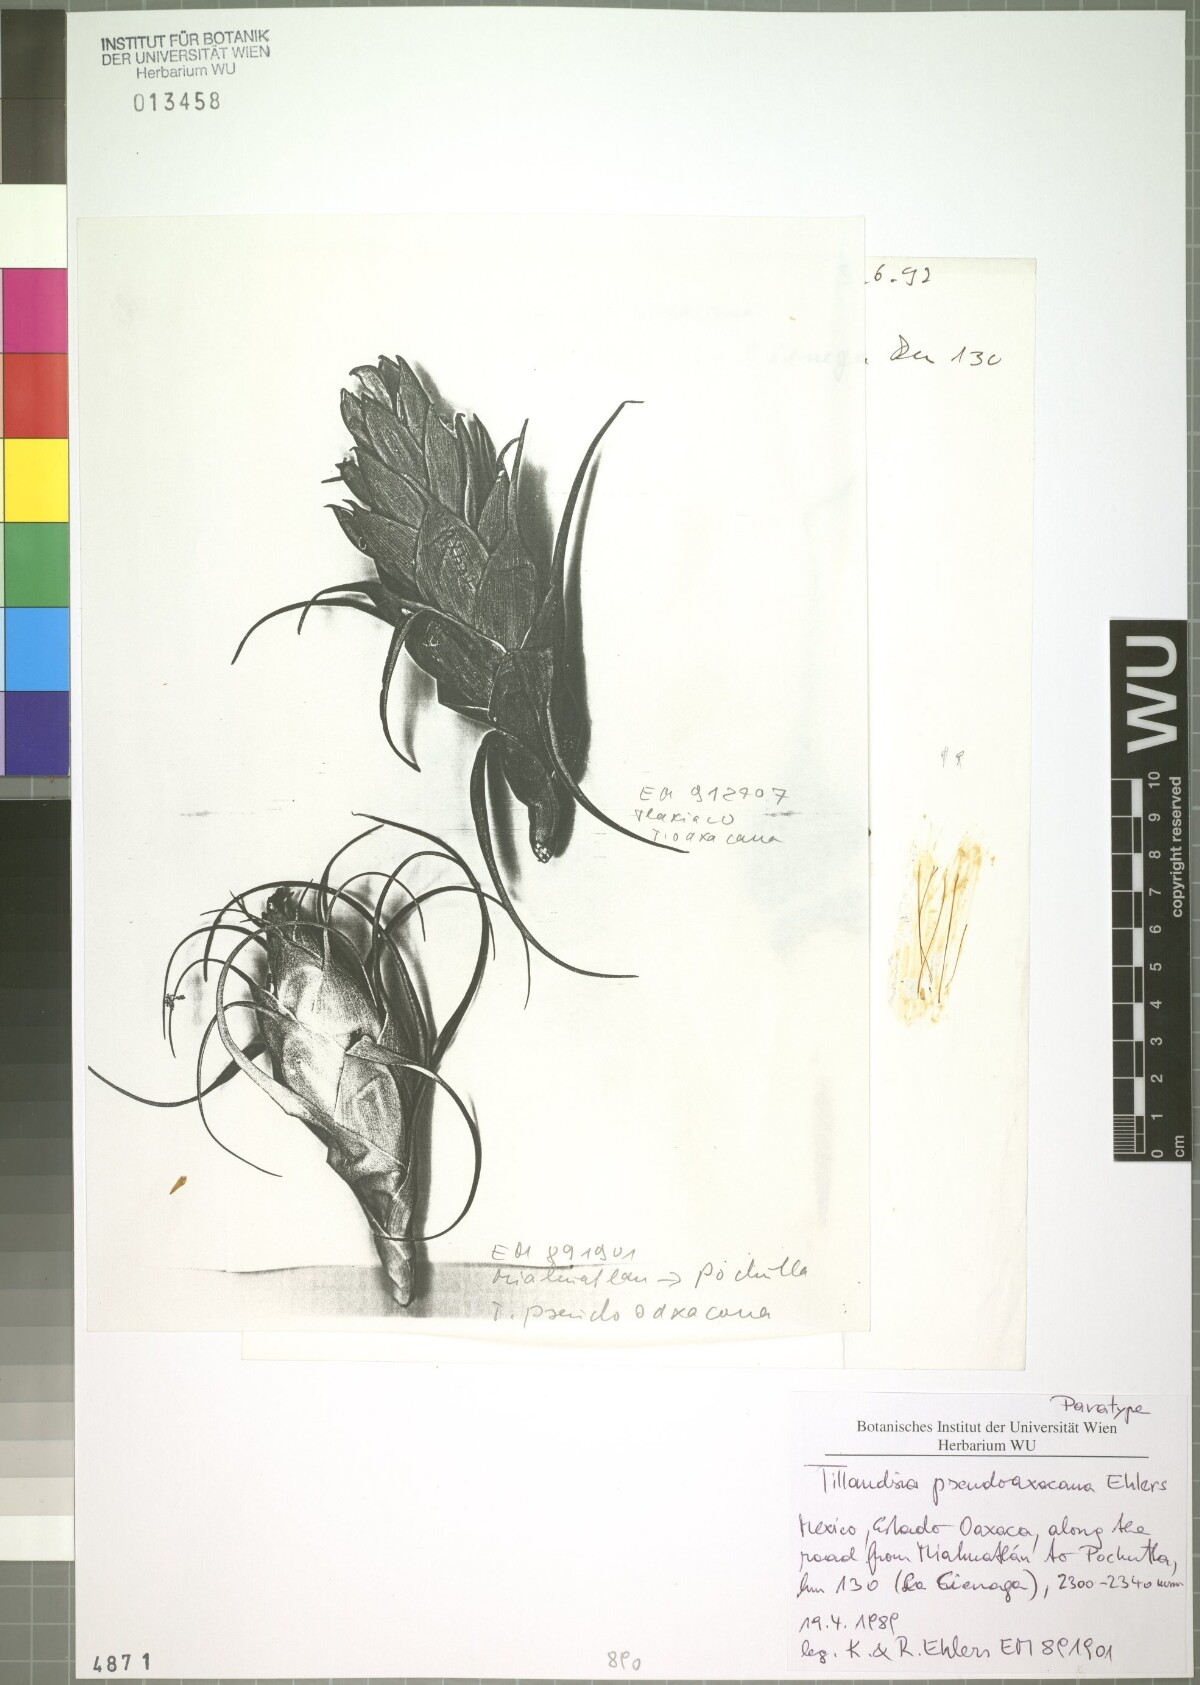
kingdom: Plantae
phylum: Tracheophyta
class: Liliopsida
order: Poales
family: Bromeliaceae
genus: Tillandsia
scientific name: Tillandsia pseudooaxacana
